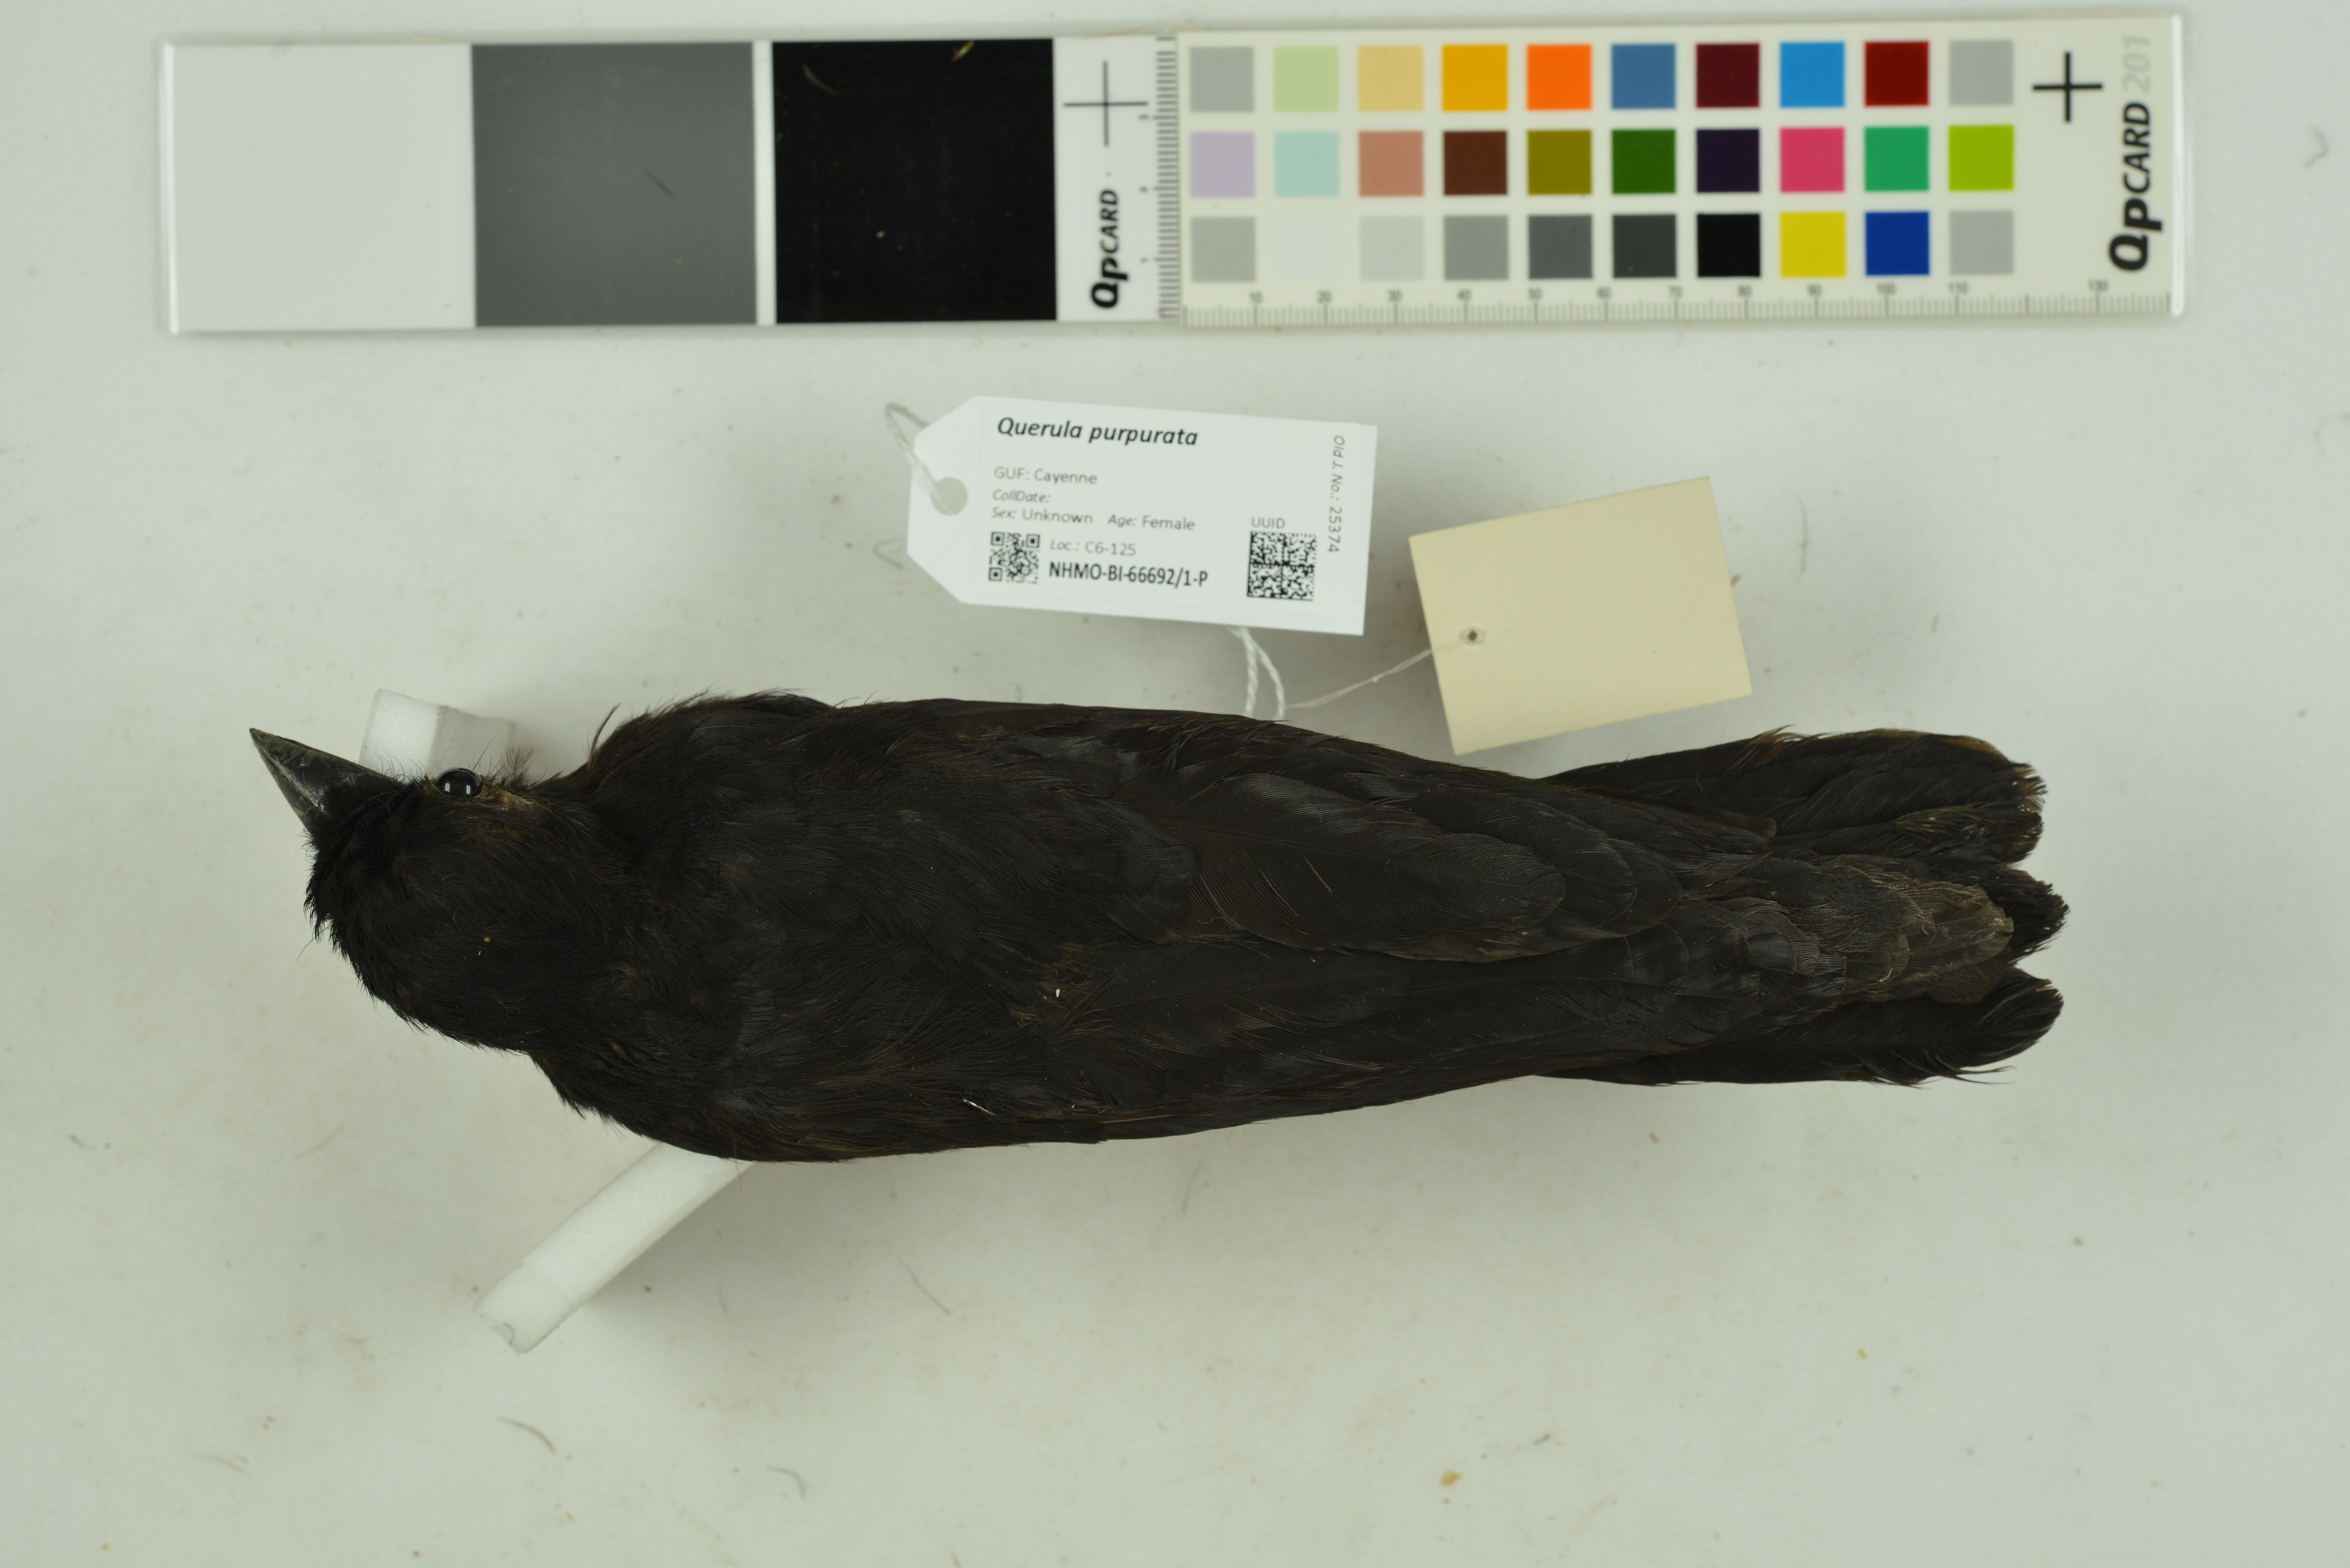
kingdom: Animalia
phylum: Chordata
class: Aves
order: Passeriformes
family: Cotingidae
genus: Querula
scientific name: Querula purpurata
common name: Purple-throated fruitcrow
